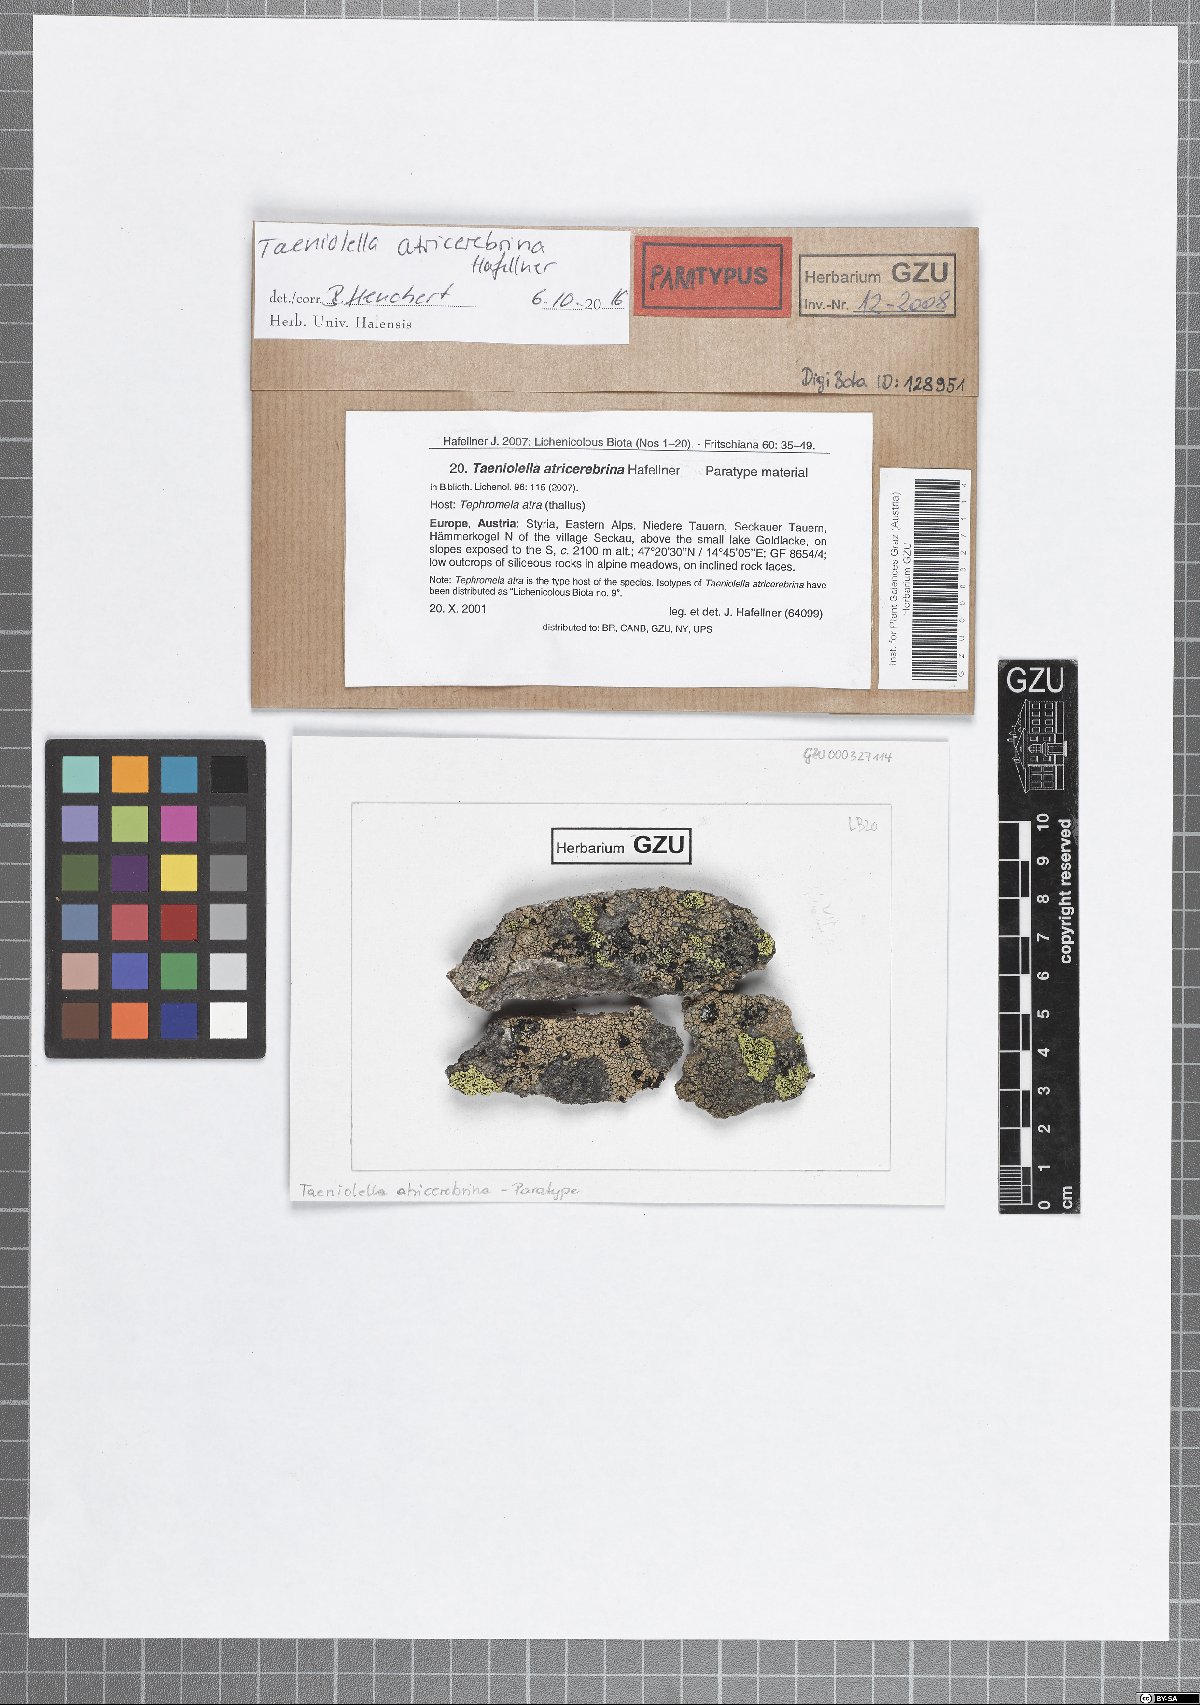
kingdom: Fungi
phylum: Ascomycota
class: Dothideomycetes
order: Mytilinidiales
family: Mytilinidiaceae
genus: Taeniolella
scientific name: Taeniolella atricerebrina
